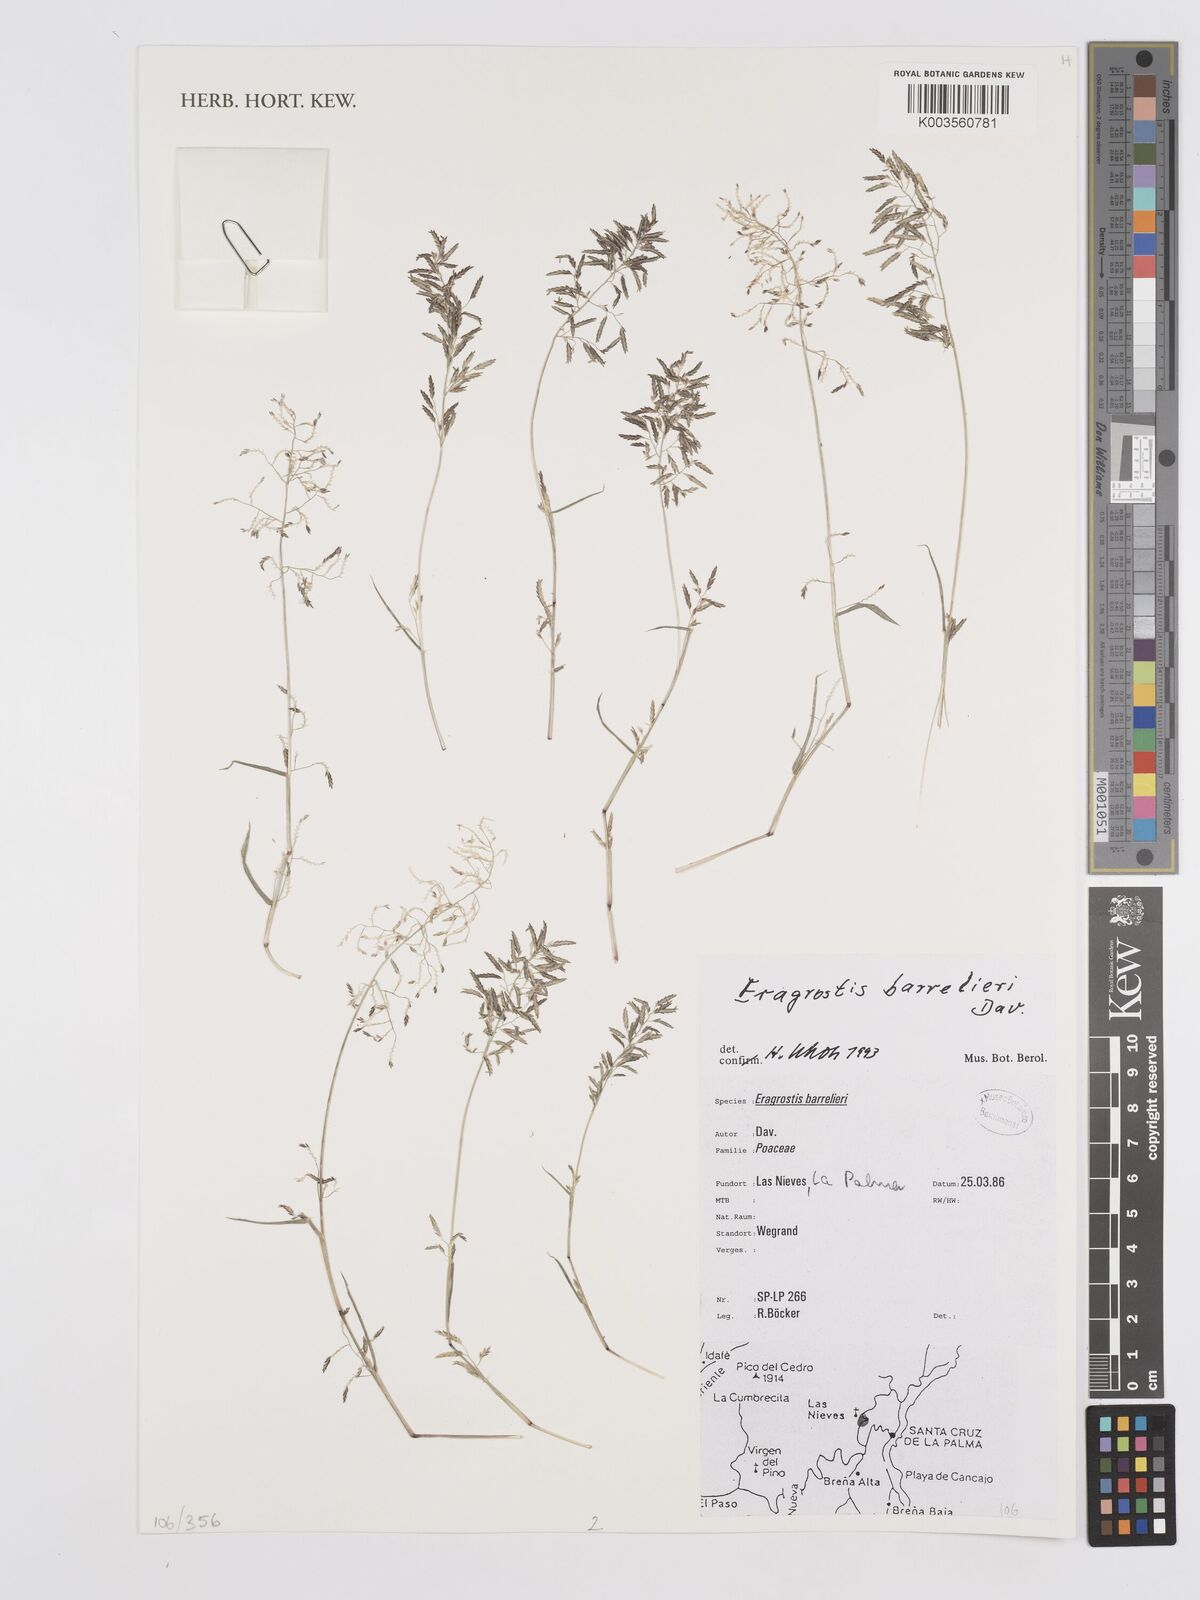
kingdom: Plantae
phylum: Tracheophyta
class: Liliopsida
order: Poales
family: Poaceae
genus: Eragrostis
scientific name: Eragrostis barrelieri
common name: Mediterranean lovegrass
